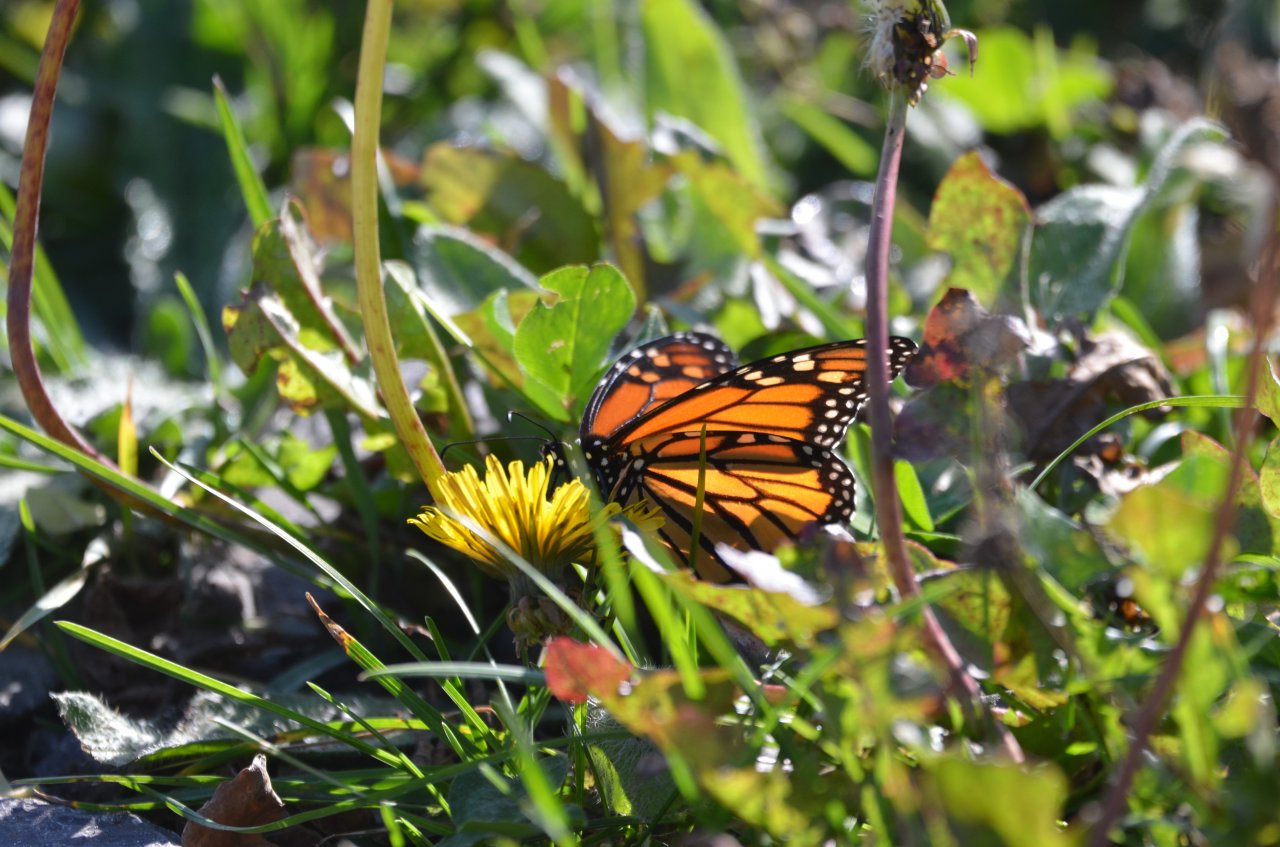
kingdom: Animalia
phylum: Arthropoda
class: Insecta
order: Lepidoptera
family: Nymphalidae
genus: Danaus
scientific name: Danaus plexippus
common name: Monarch
